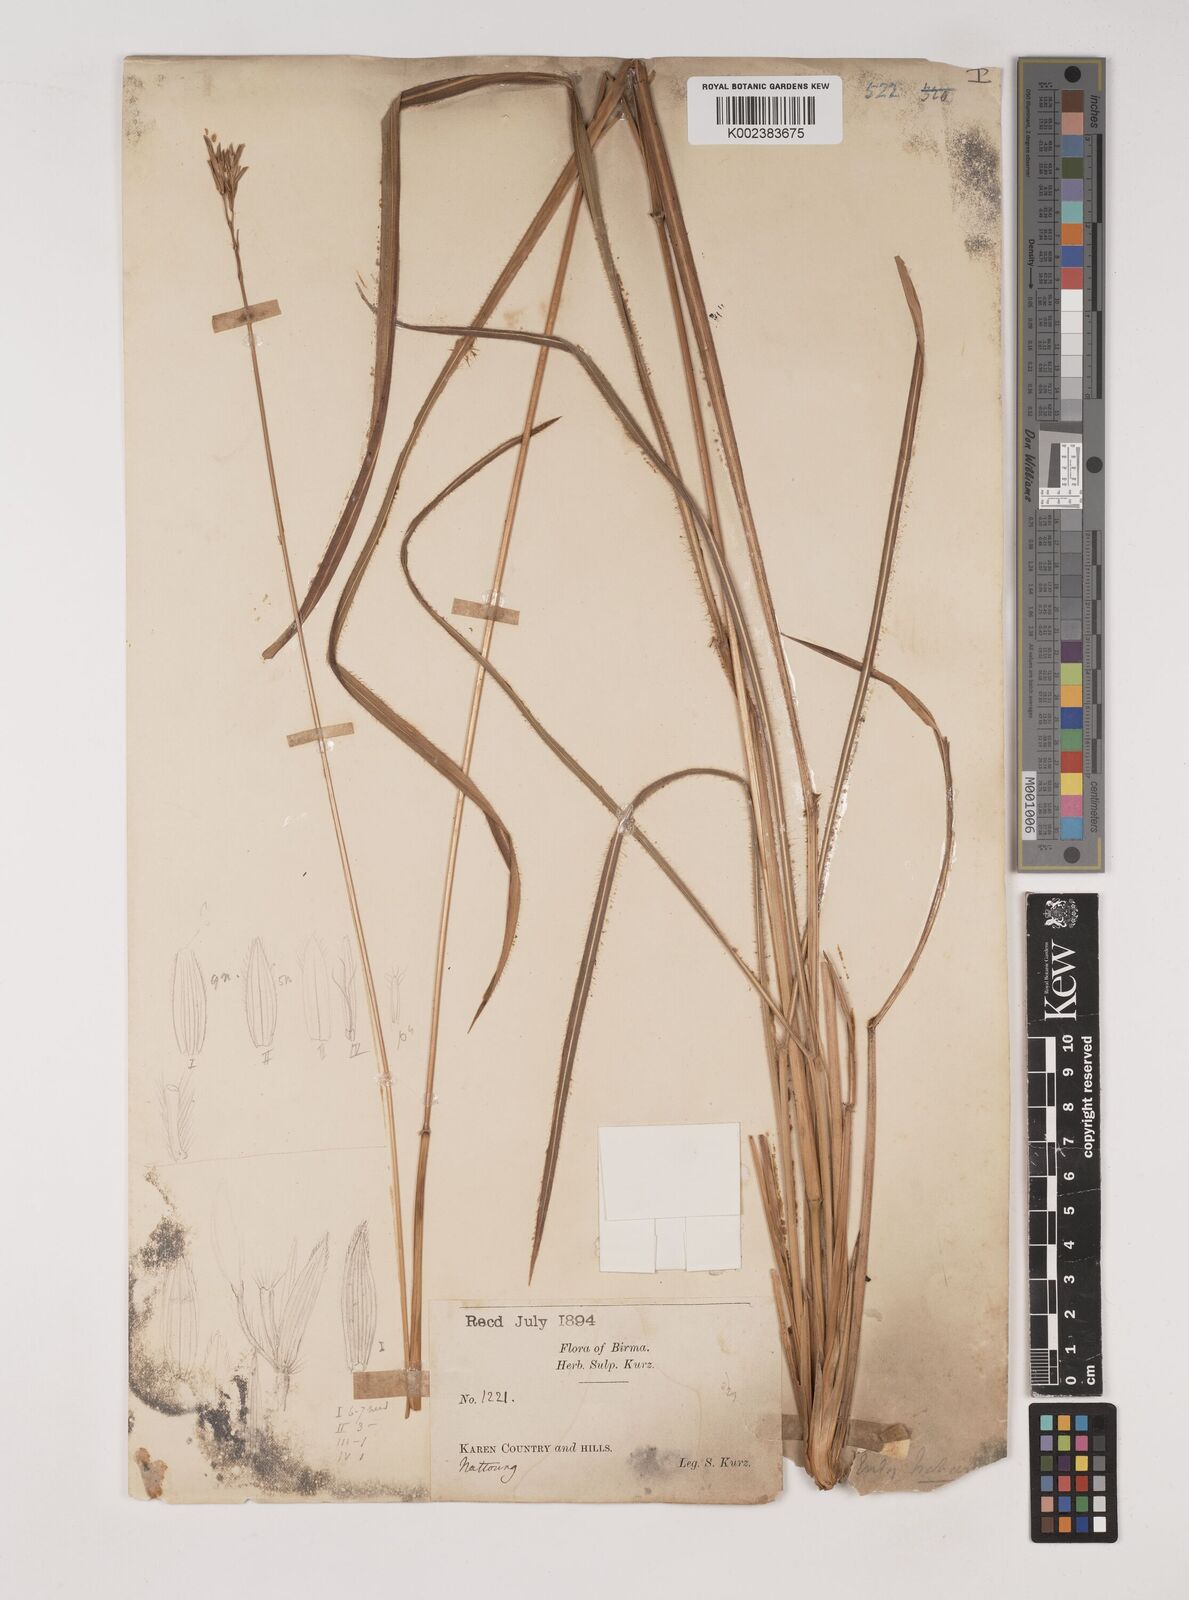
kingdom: Plantae
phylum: Tracheophyta
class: Liliopsida
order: Poales
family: Poaceae
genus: Ischaemum
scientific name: Ischaemum
